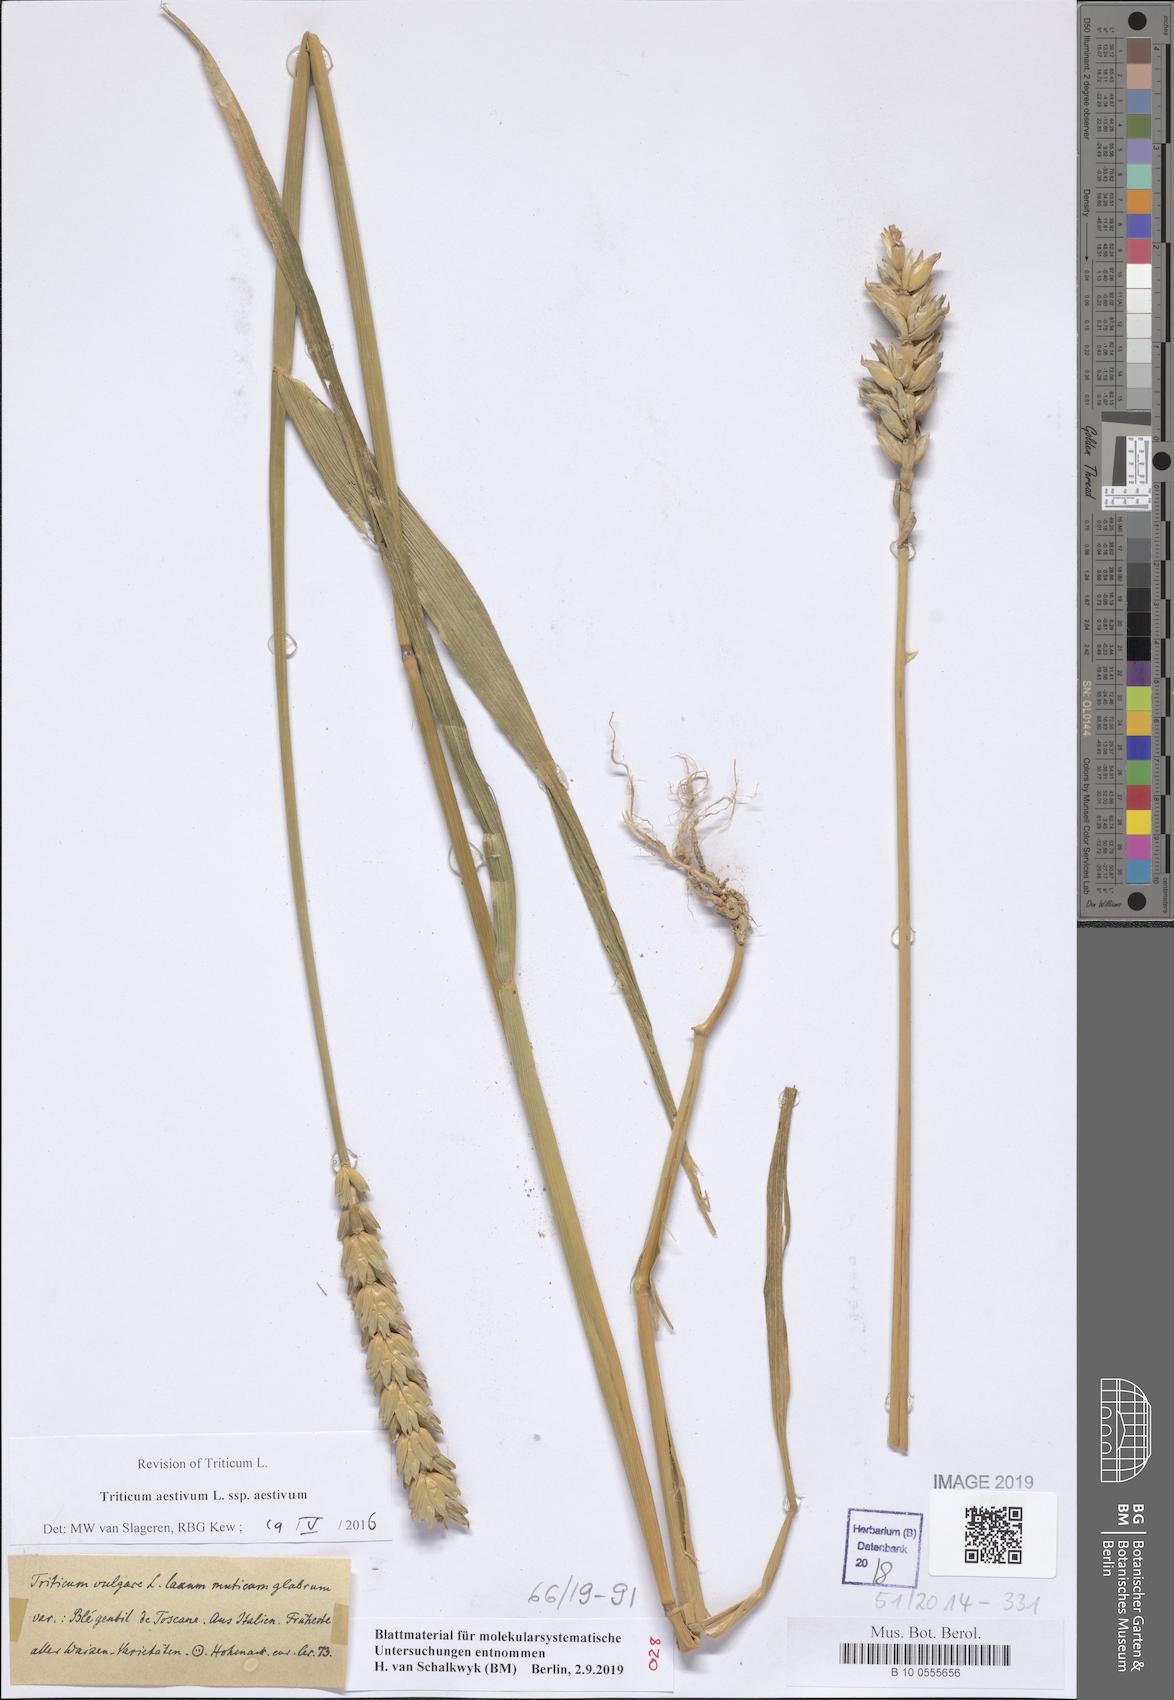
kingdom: Plantae
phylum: Tracheophyta
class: Liliopsida
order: Poales
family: Poaceae
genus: Triticum
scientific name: Triticum aestivum
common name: Common wheat
